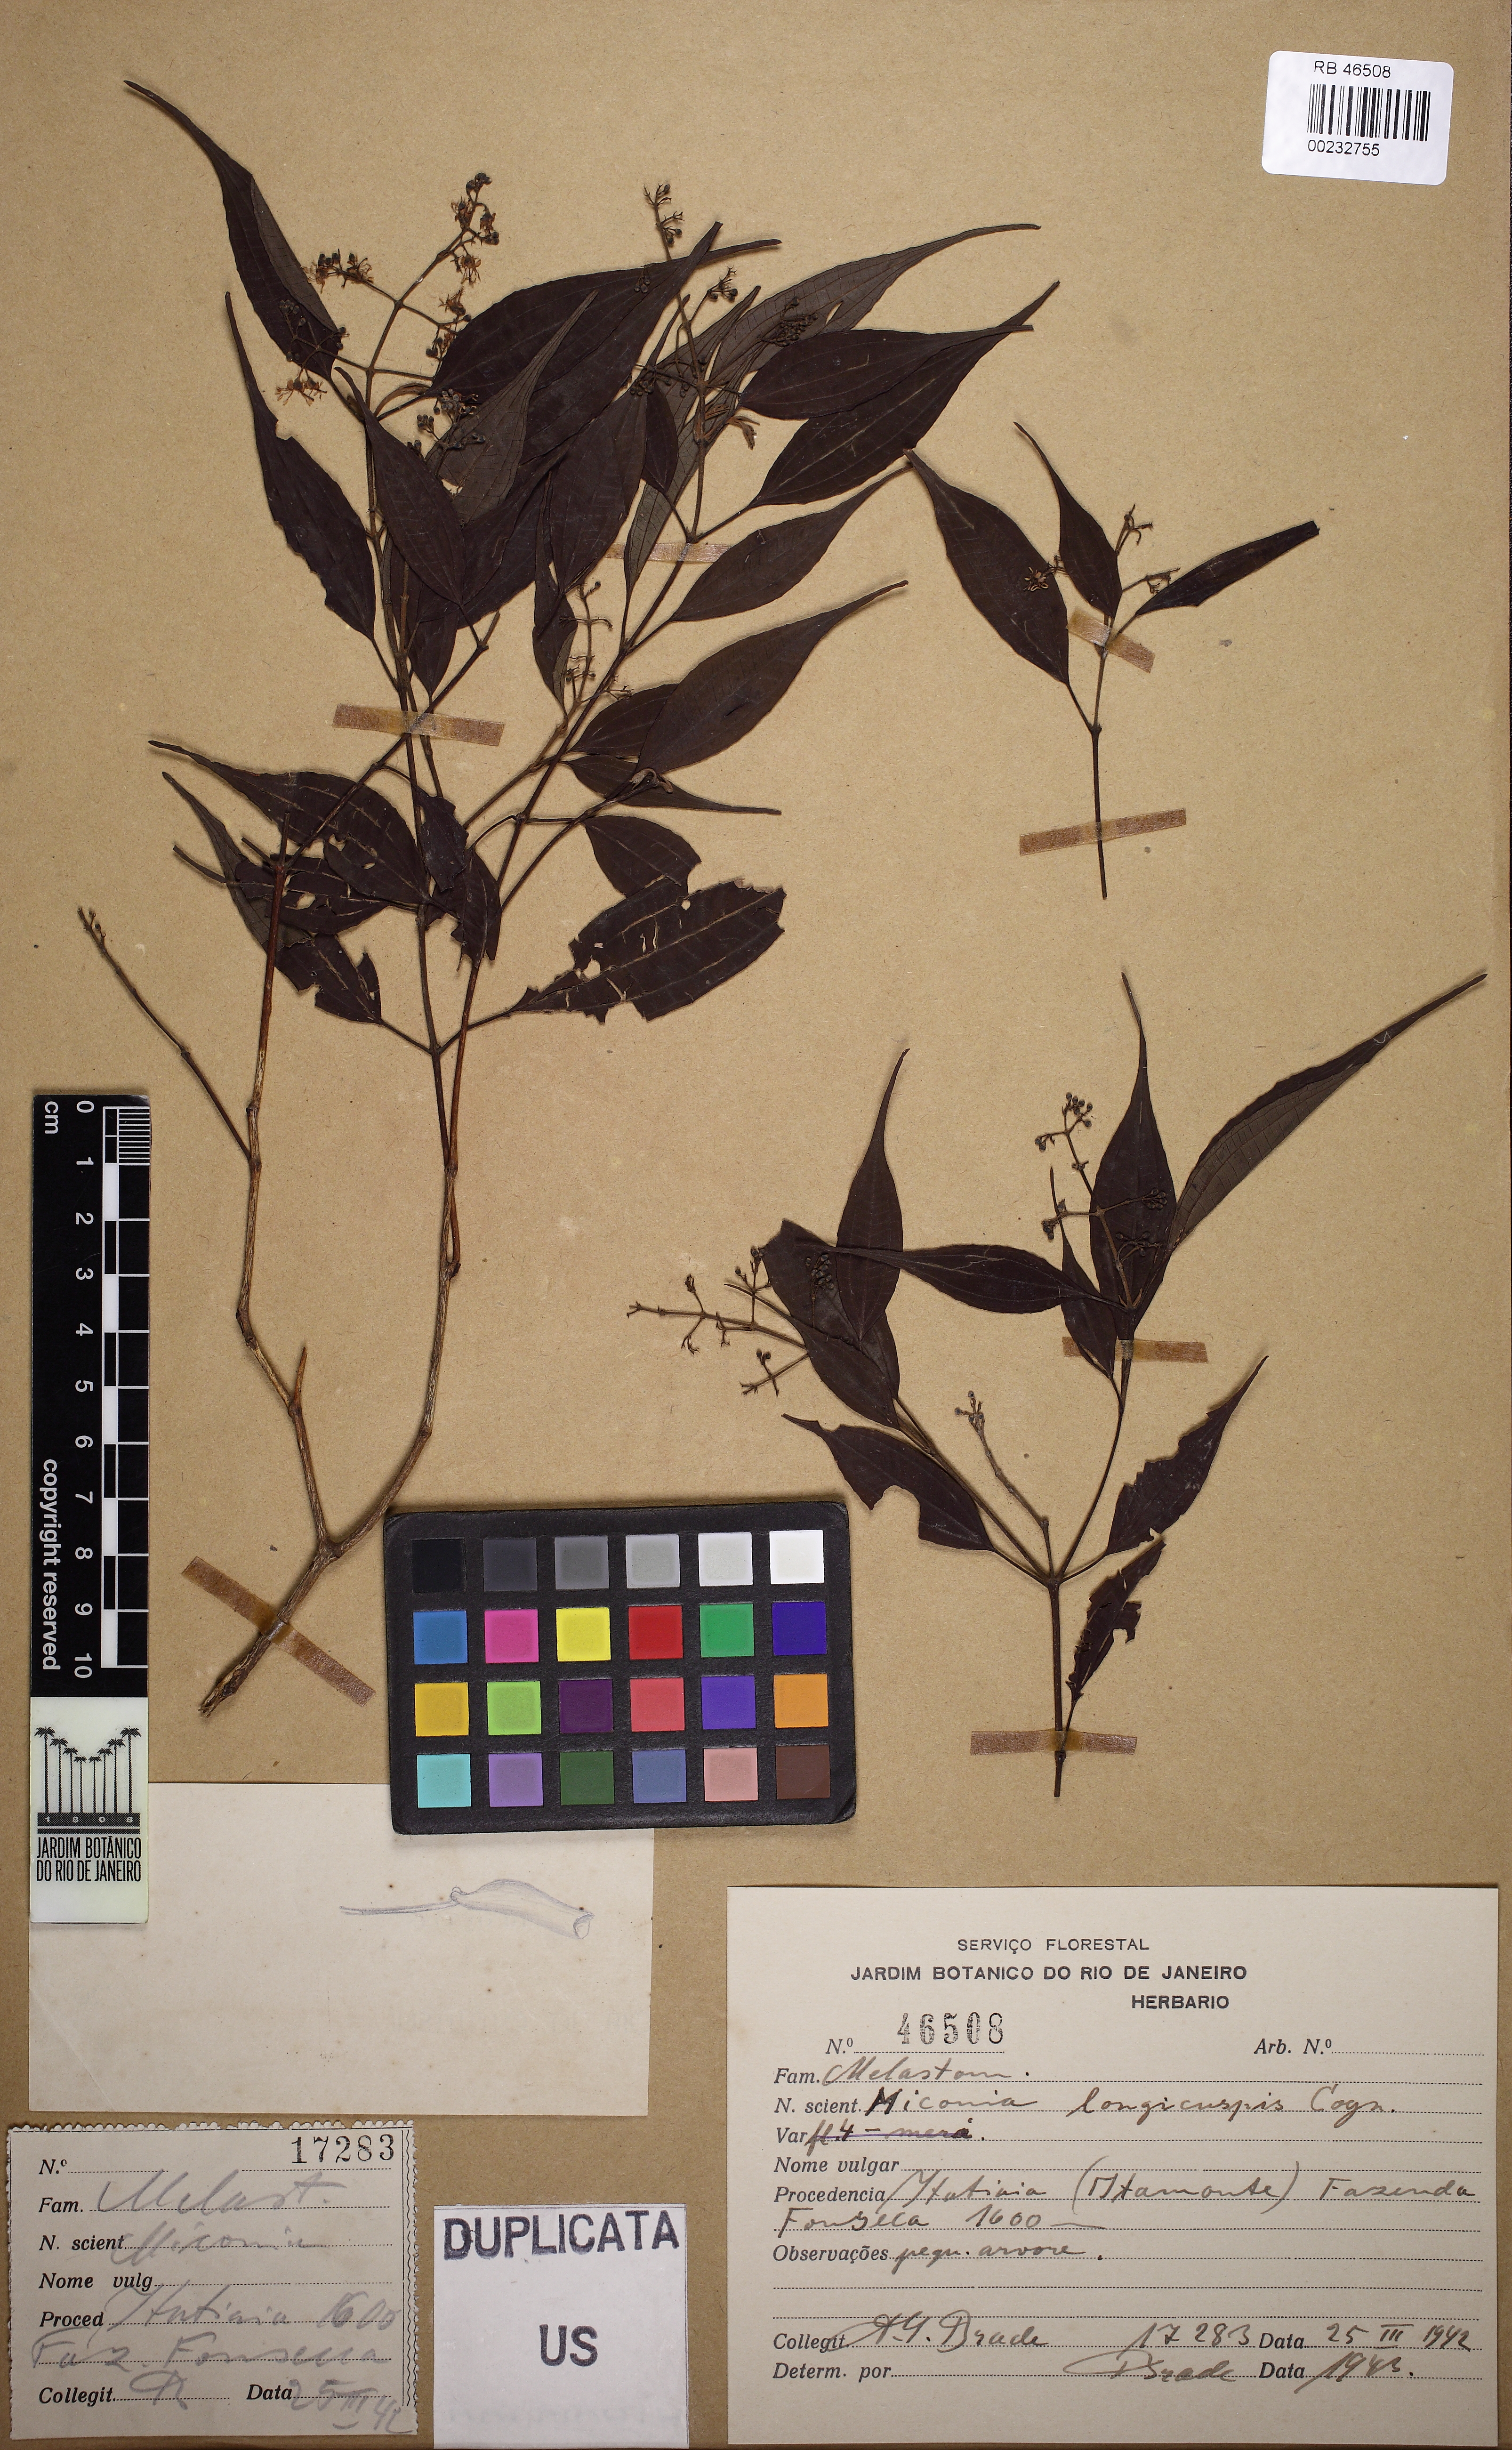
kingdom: Plantae
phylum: Tracheophyta
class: Magnoliopsida
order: Myrtales
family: Melastomataceae
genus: Miconia
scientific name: Miconia longicuspis
